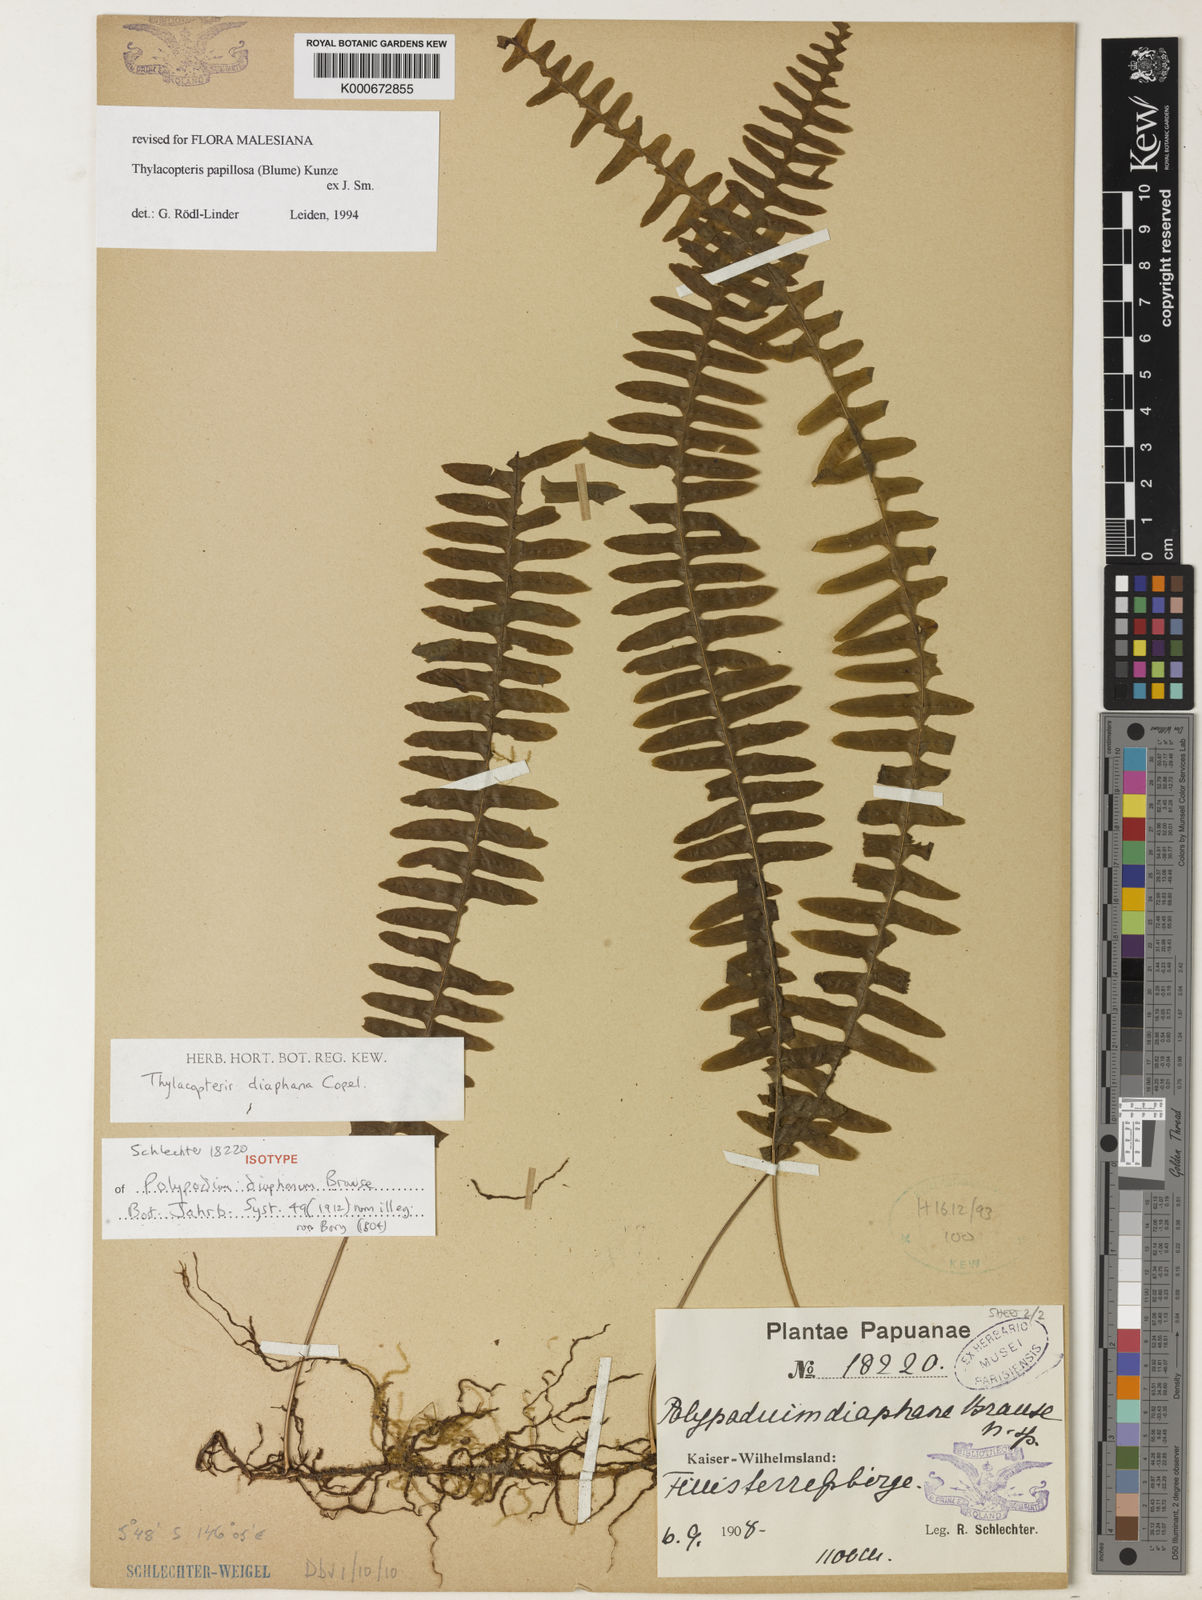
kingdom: Plantae
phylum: Tracheophyta
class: Polypodiopsida
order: Polypodiales
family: Polypodiaceae
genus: Thylacopteris
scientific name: Thylacopteris diaphana
